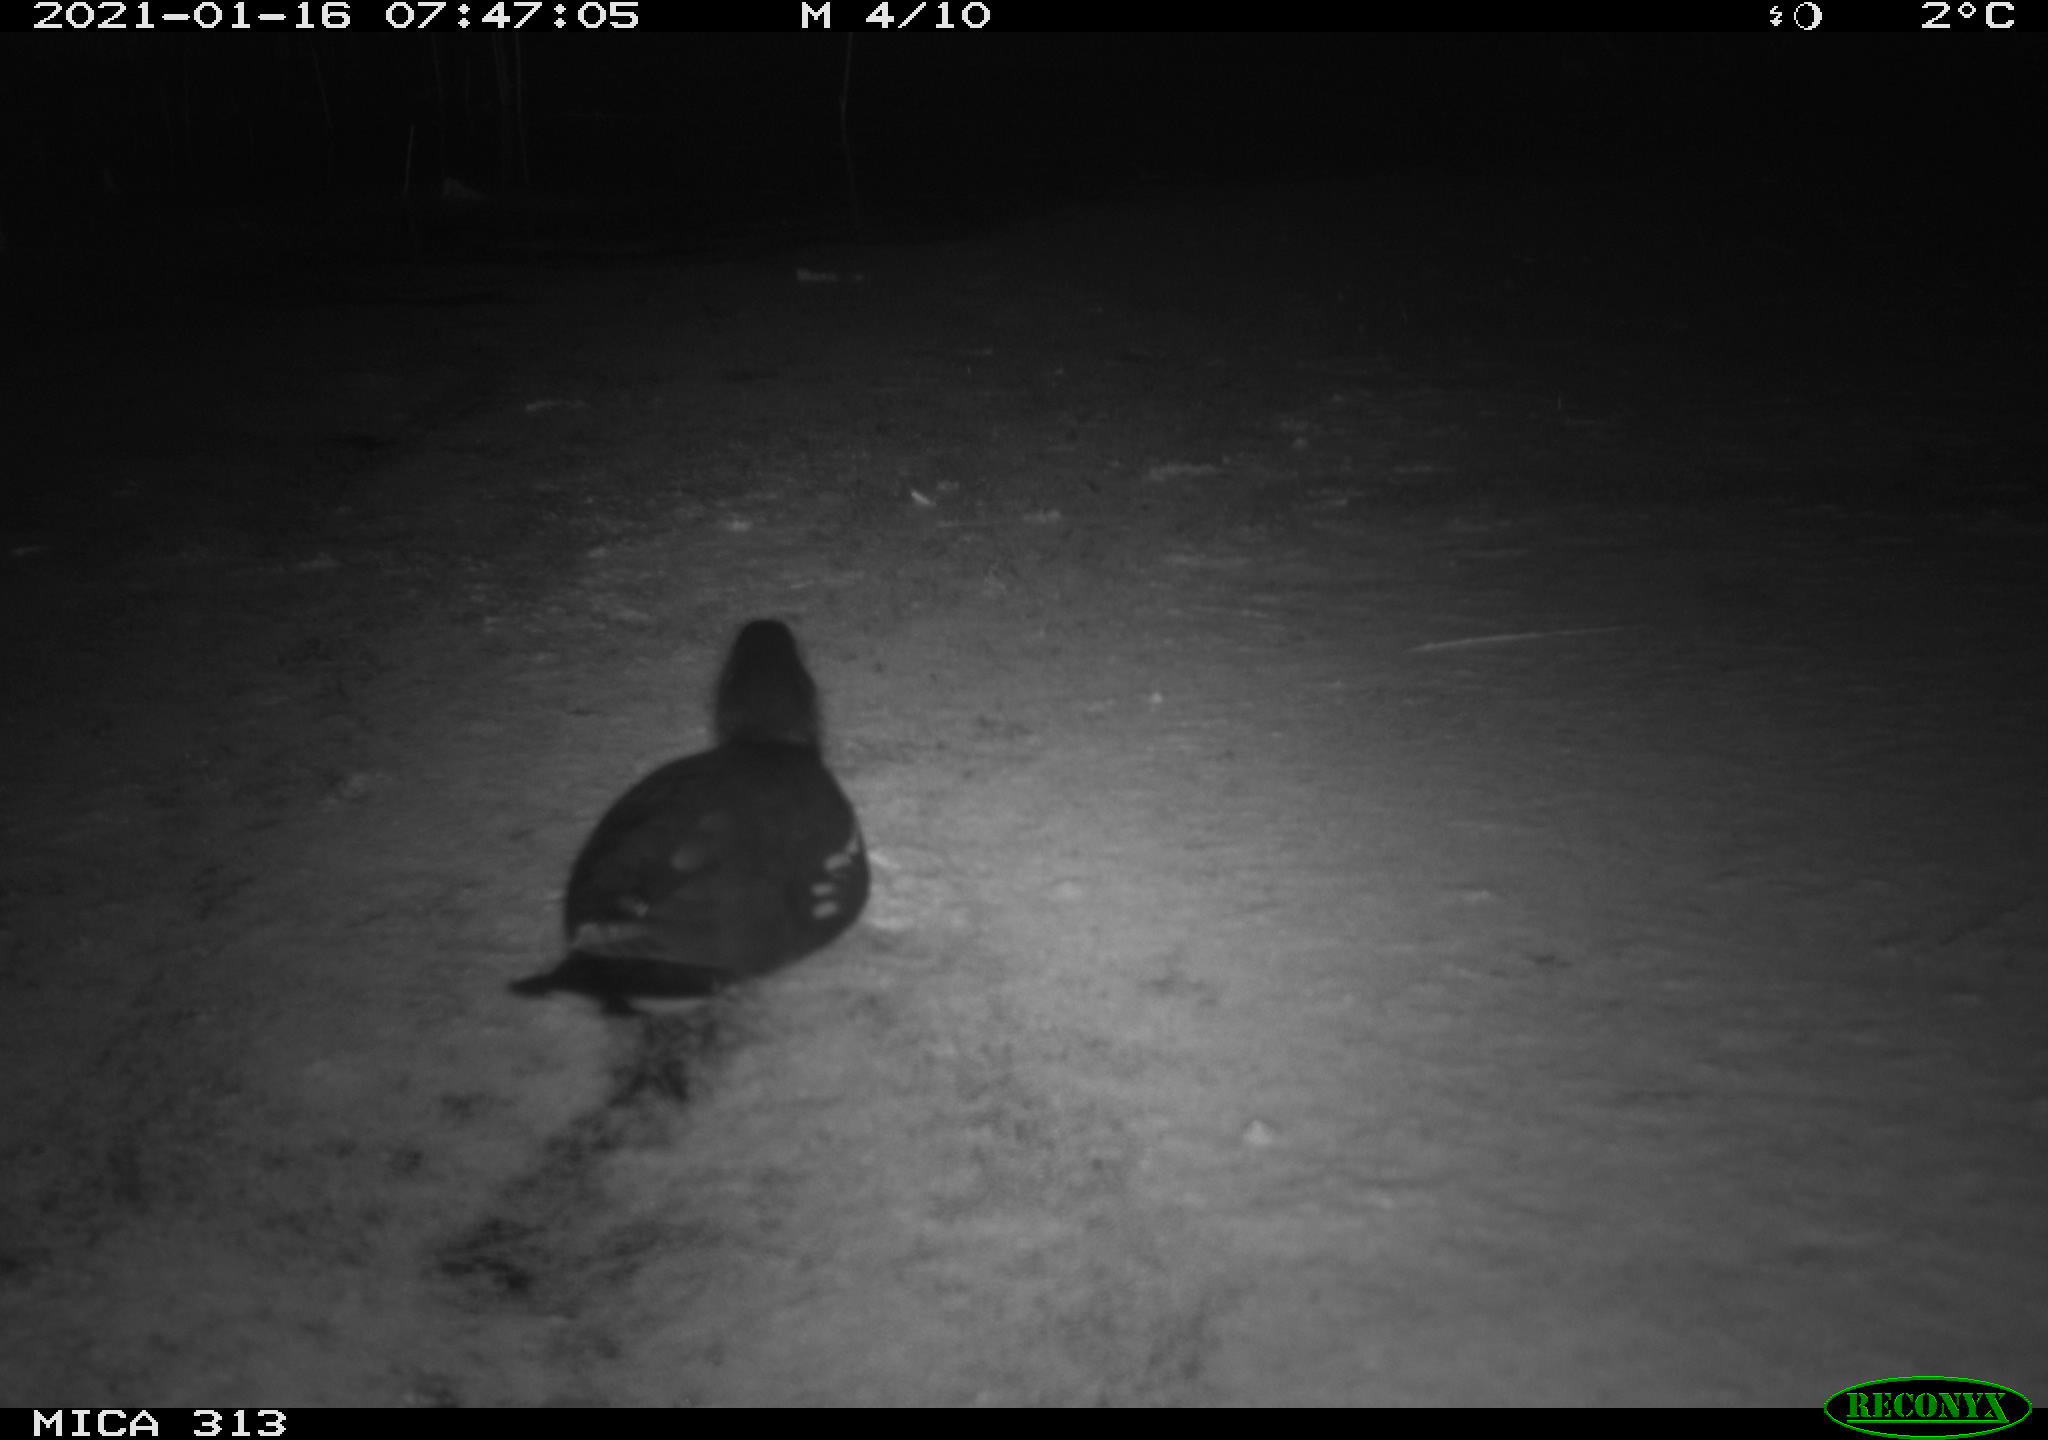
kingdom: Animalia
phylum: Chordata
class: Aves
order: Gruiformes
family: Rallidae
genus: Fulica
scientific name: Fulica atra
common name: Eurasian coot
